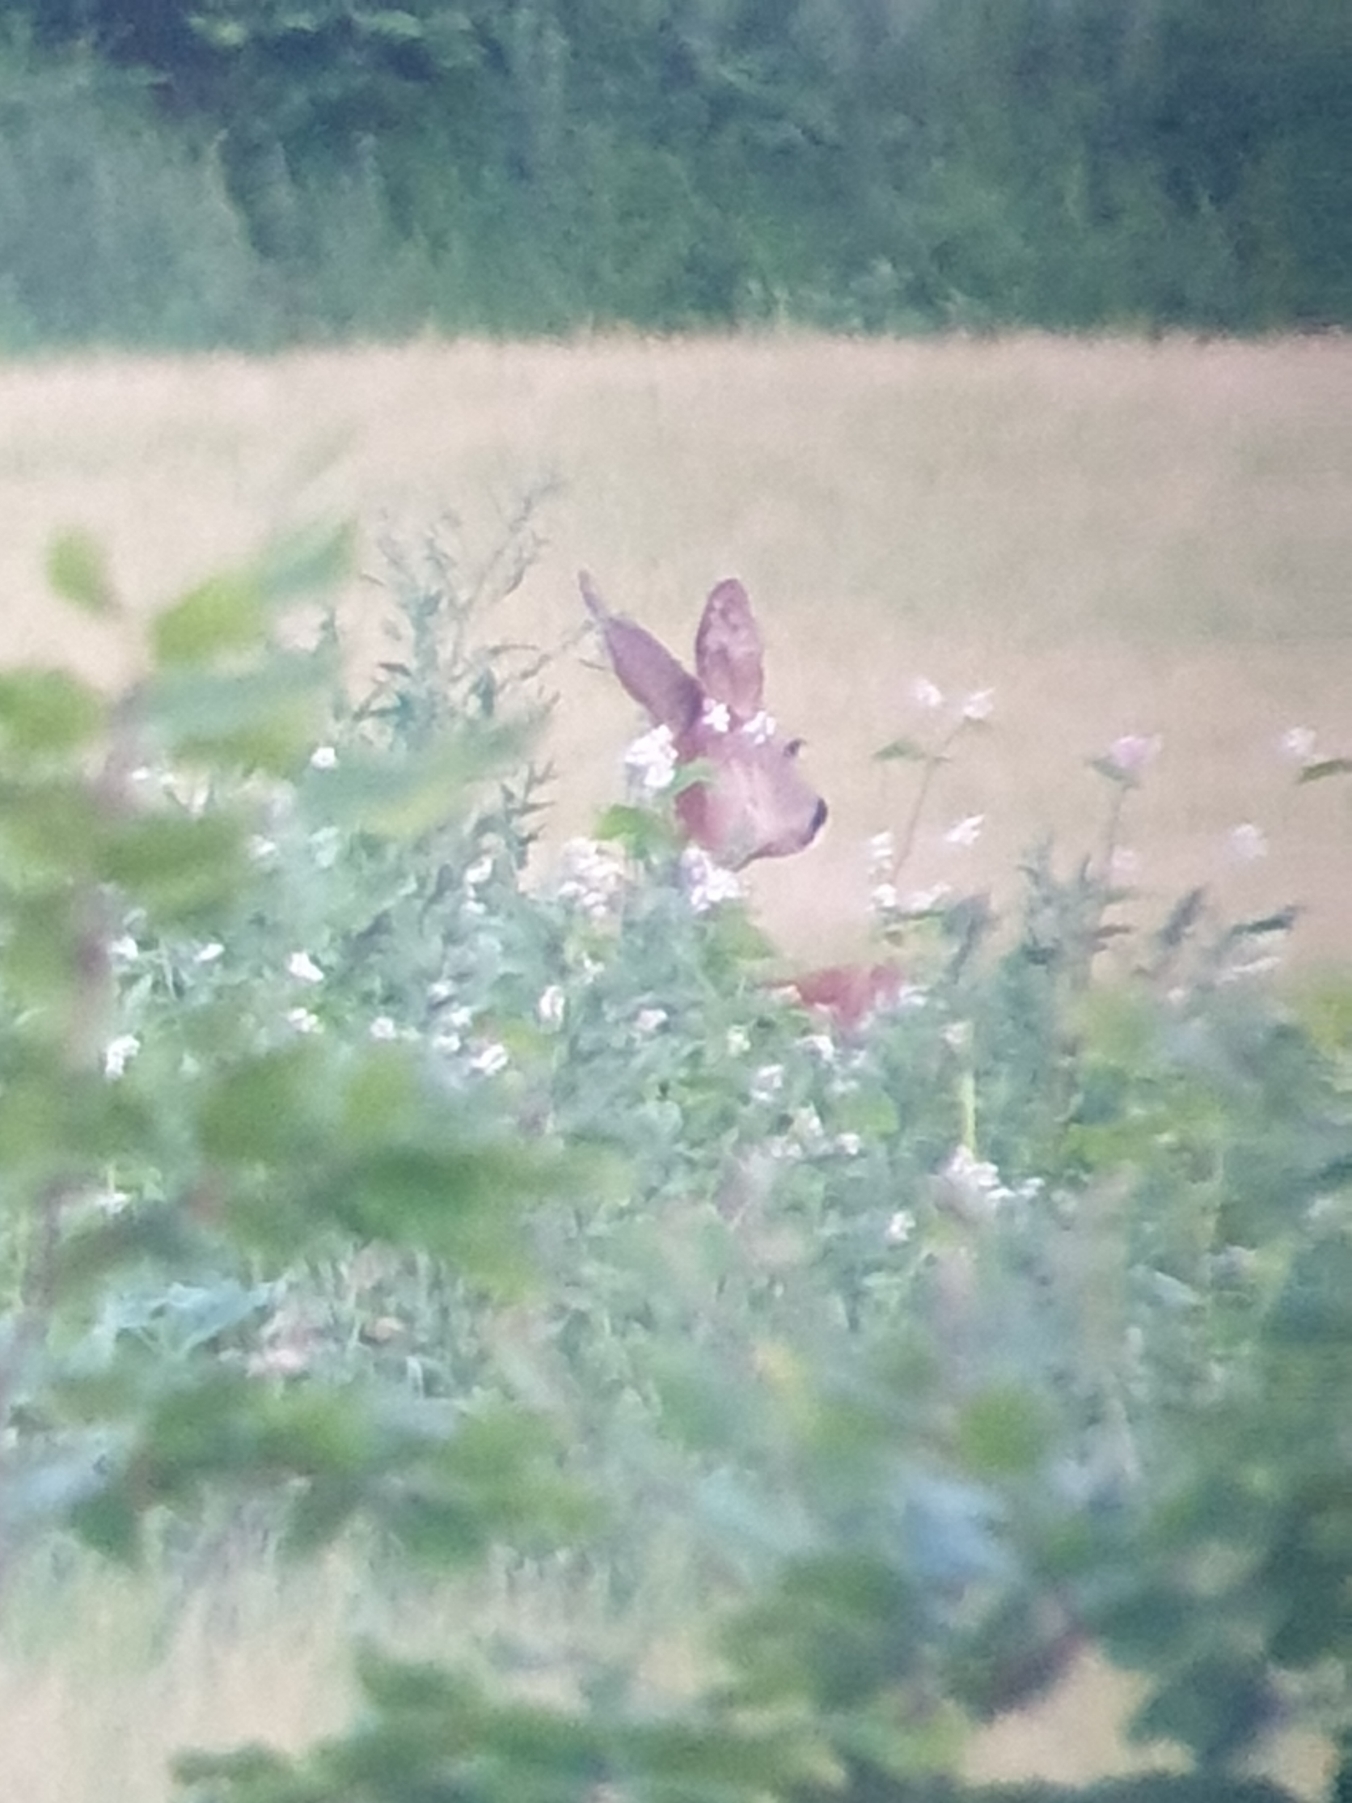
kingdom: Animalia
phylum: Chordata
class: Mammalia
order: Artiodactyla
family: Cervidae
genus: Capreolus
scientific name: Capreolus capreolus
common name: Rådyr
